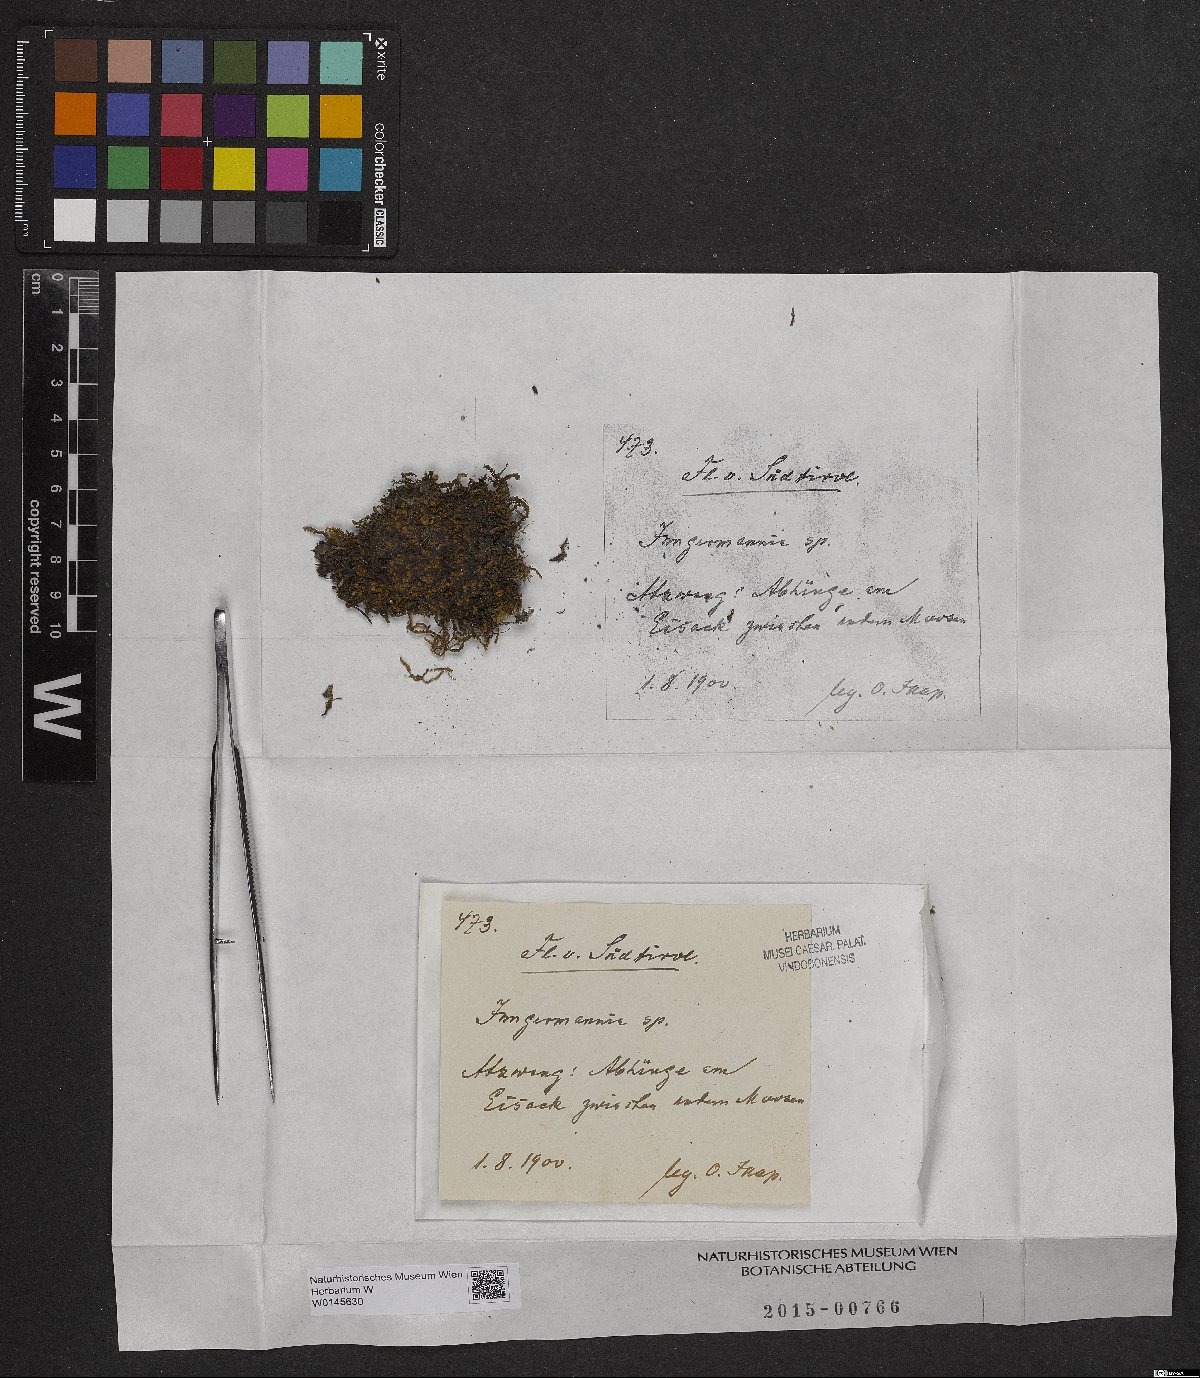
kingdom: Plantae
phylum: Marchantiophyta
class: Jungermanniopsida
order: Jungermanniales
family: Jungermanniaceae
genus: Jungermannia
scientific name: Jungermannia
